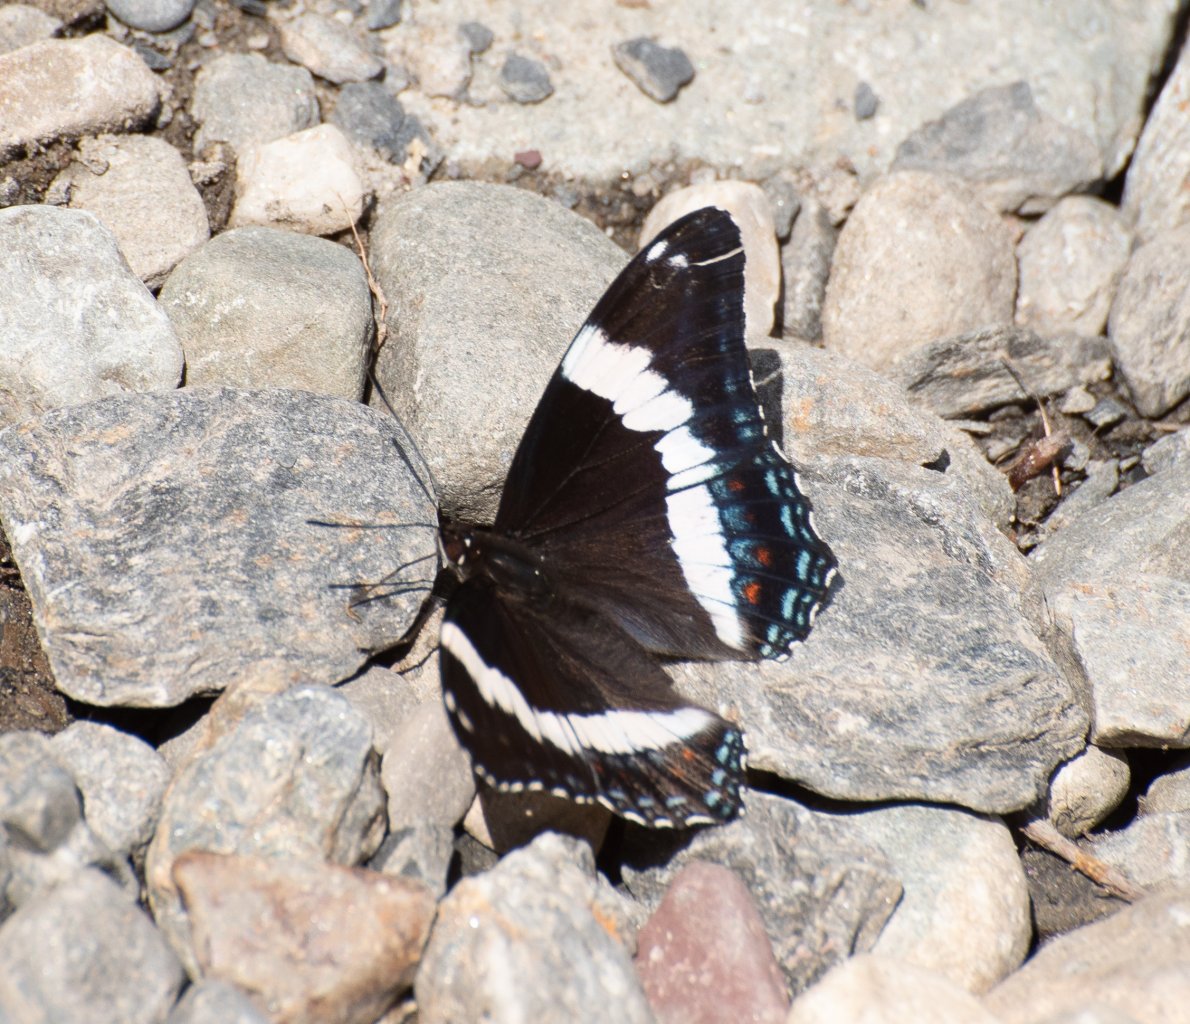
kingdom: Animalia
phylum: Arthropoda
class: Insecta
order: Lepidoptera
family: Nymphalidae
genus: Limenitis
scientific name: Limenitis arthemis
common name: Red-spotted Admiral
